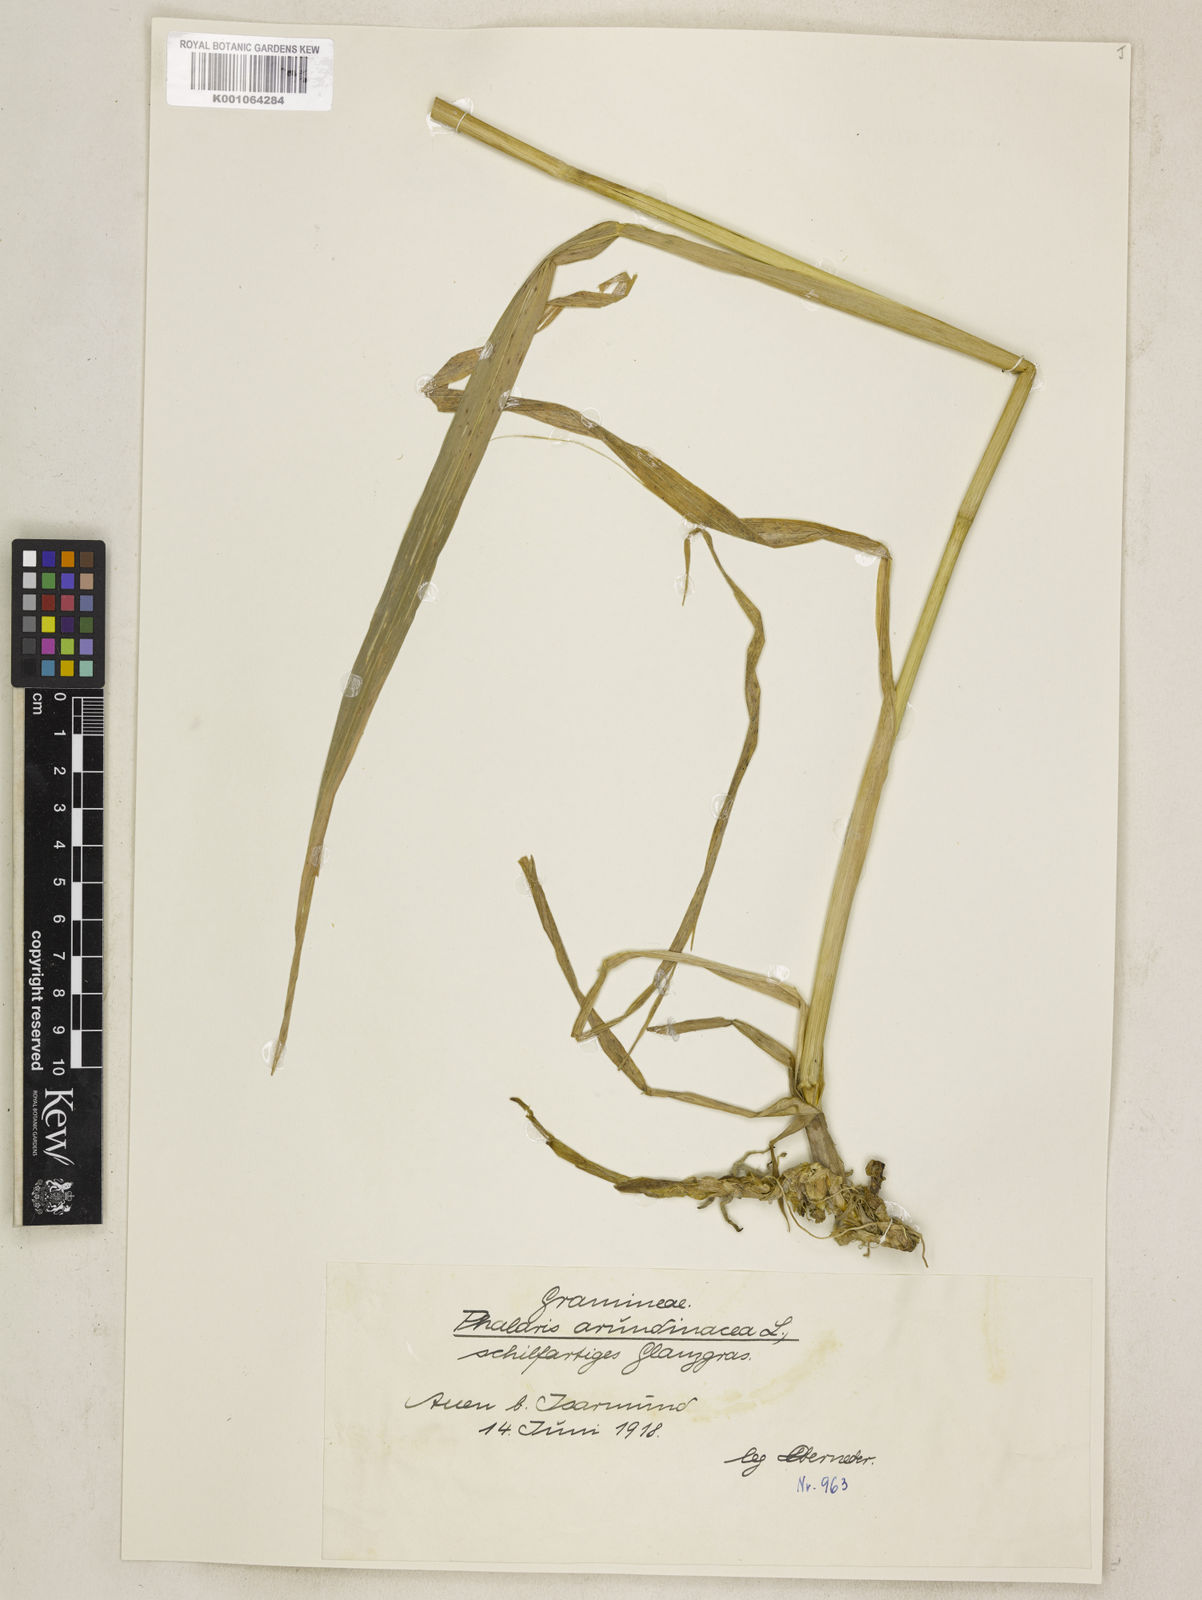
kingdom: Plantae
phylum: Tracheophyta
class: Liliopsida
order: Poales
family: Poaceae
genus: Phalaris
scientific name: Phalaris arundinacea
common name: Reed canary-grass
